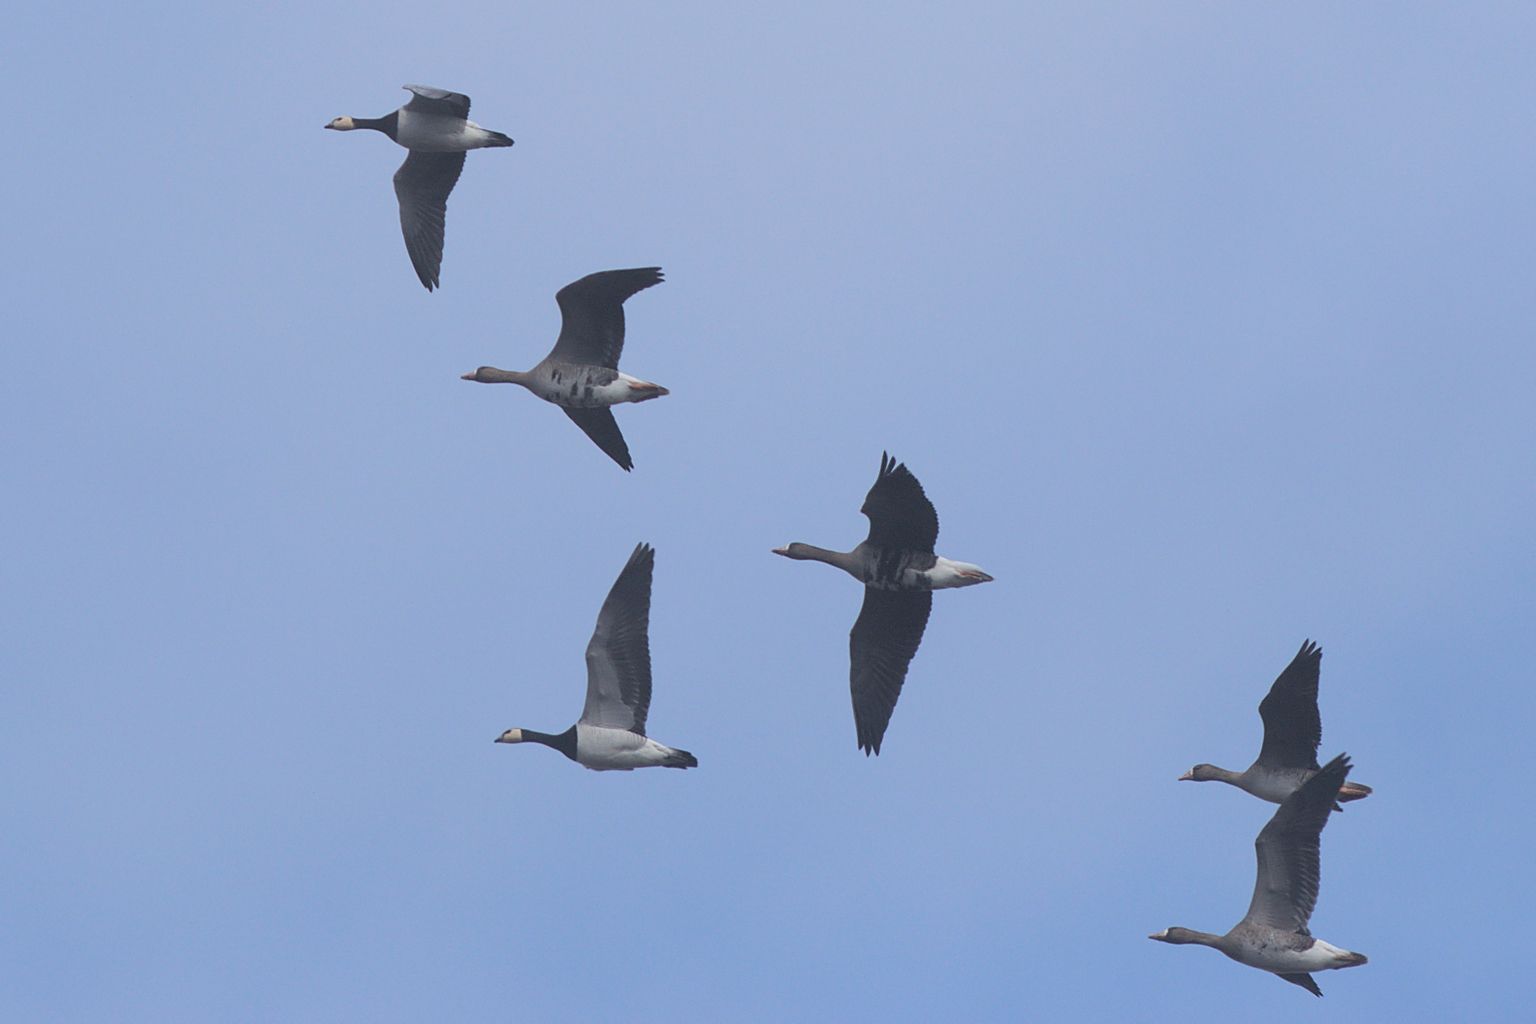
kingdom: Animalia
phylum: Chordata
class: Aves
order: Anseriformes
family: Anatidae
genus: Branta
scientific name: Branta leucopsis
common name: Barnacle goose
